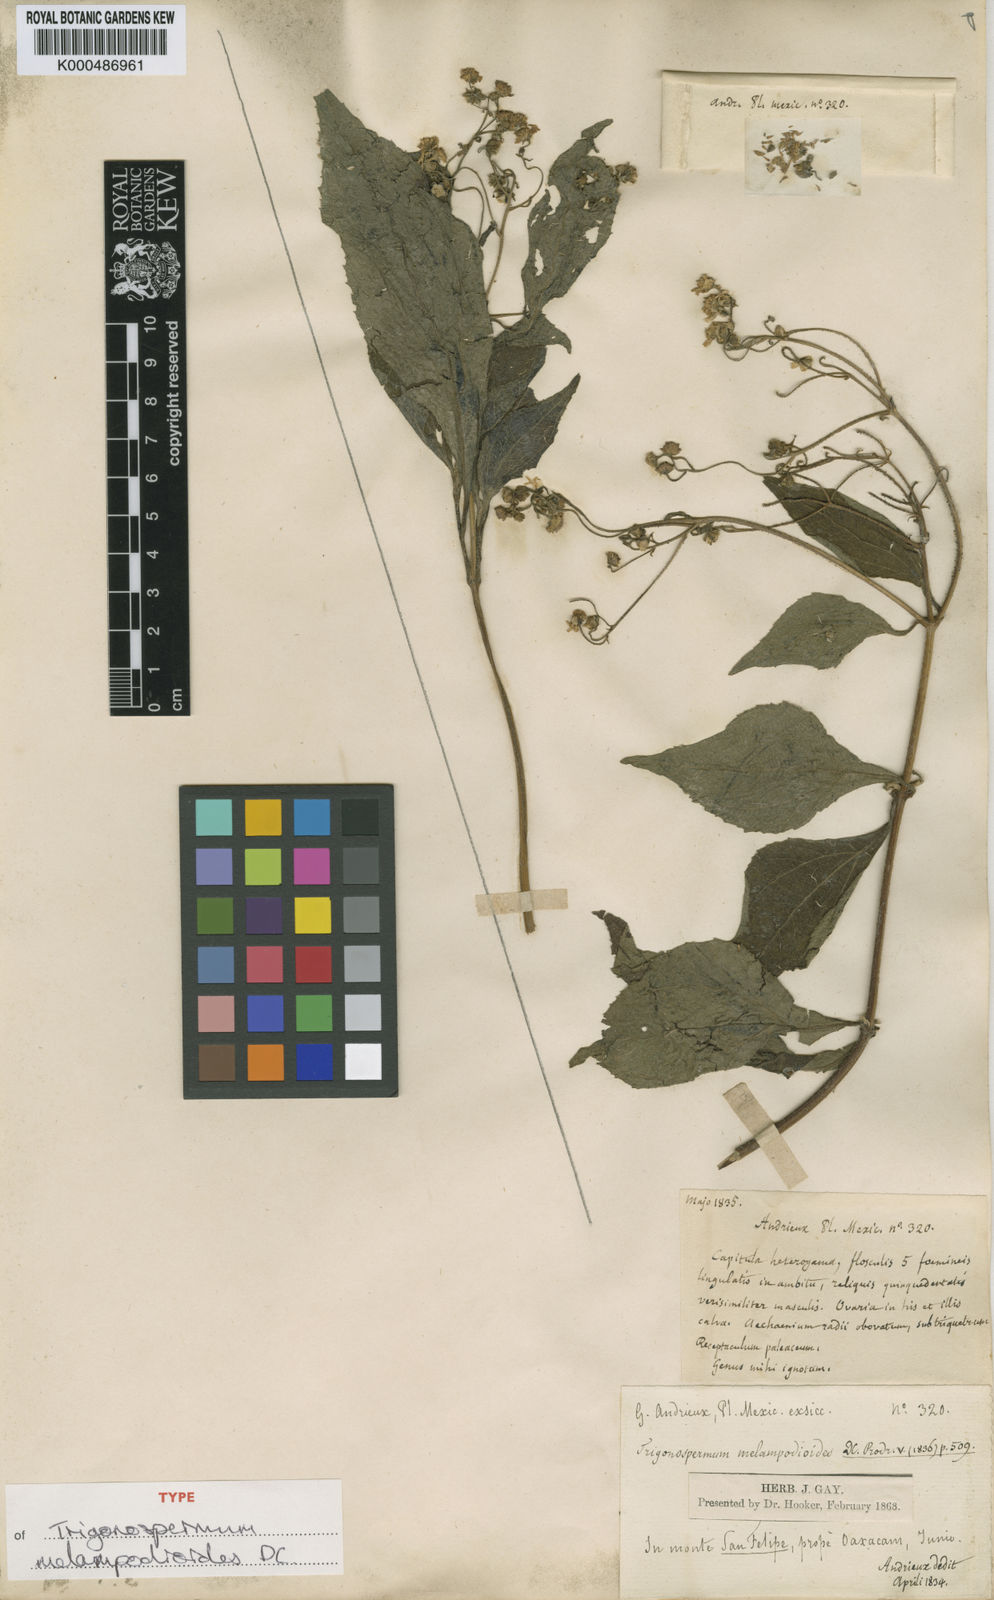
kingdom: Plantae
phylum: Tracheophyta
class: Magnoliopsida
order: Asterales
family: Asteraceae
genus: Trigonospermum
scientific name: Trigonospermum melampodioides
